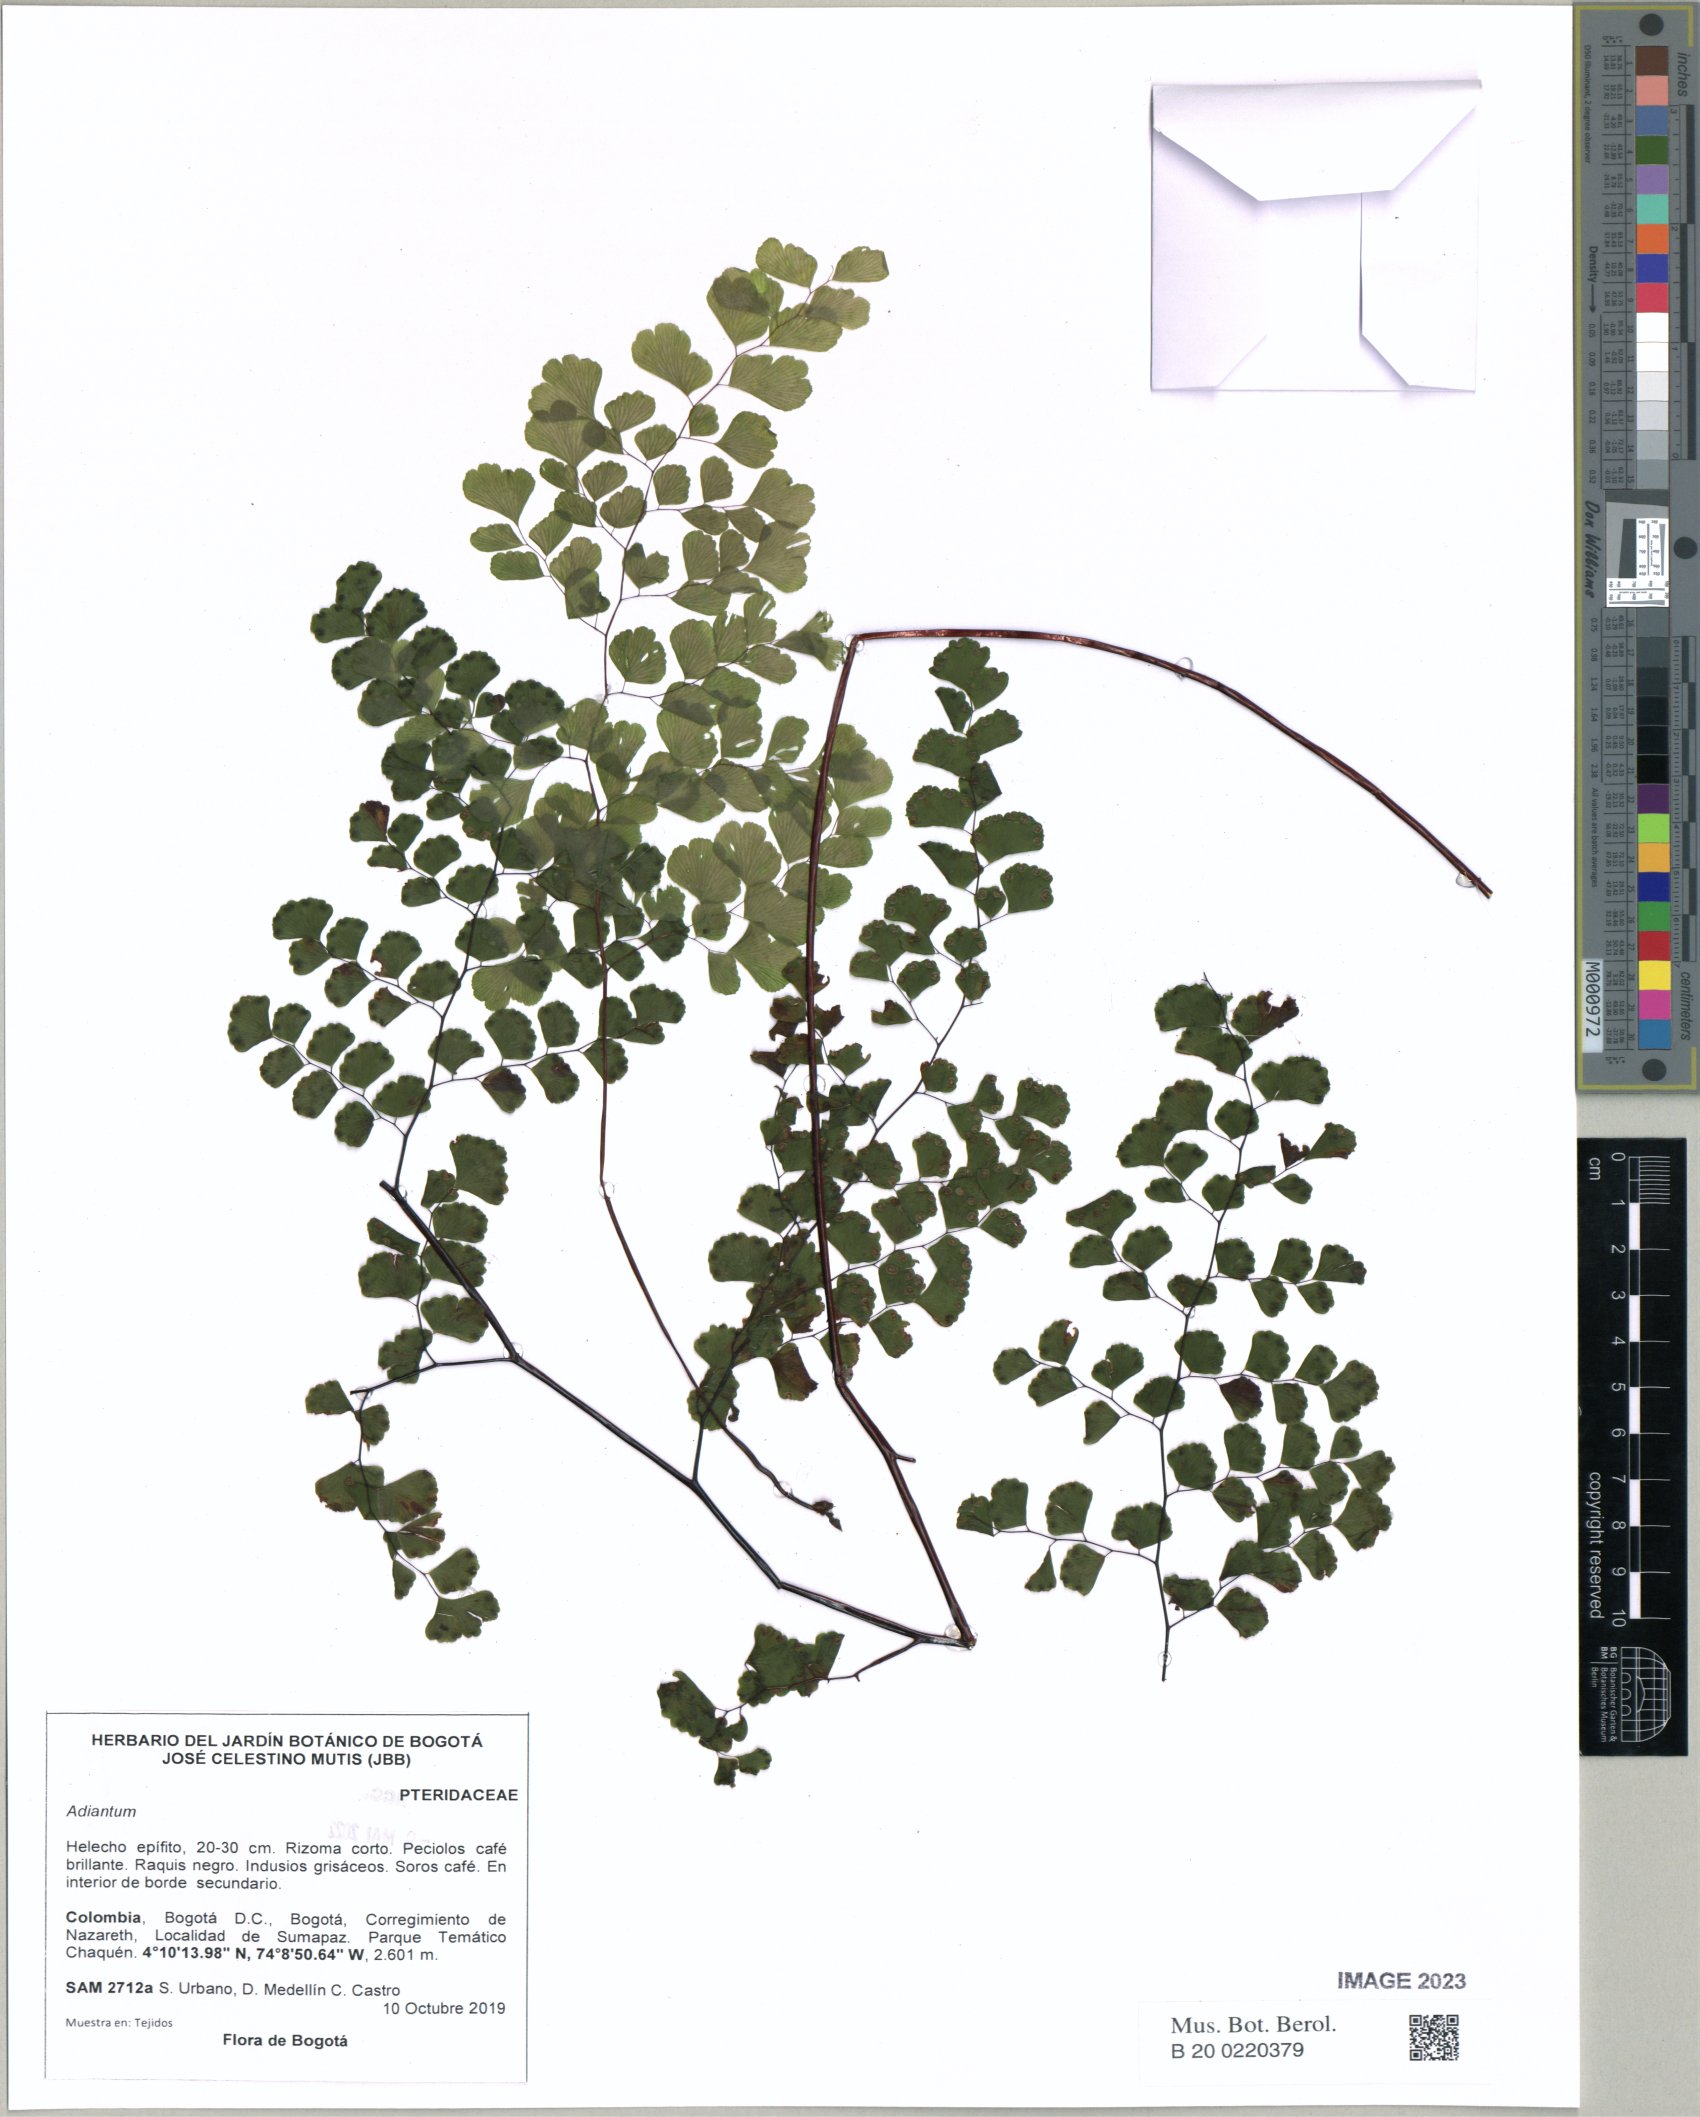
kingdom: Plantae
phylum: Tracheophyta
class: Polypodiopsida
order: Polypodiales
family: Pteridaceae
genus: Adiantum
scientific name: Adiantum
